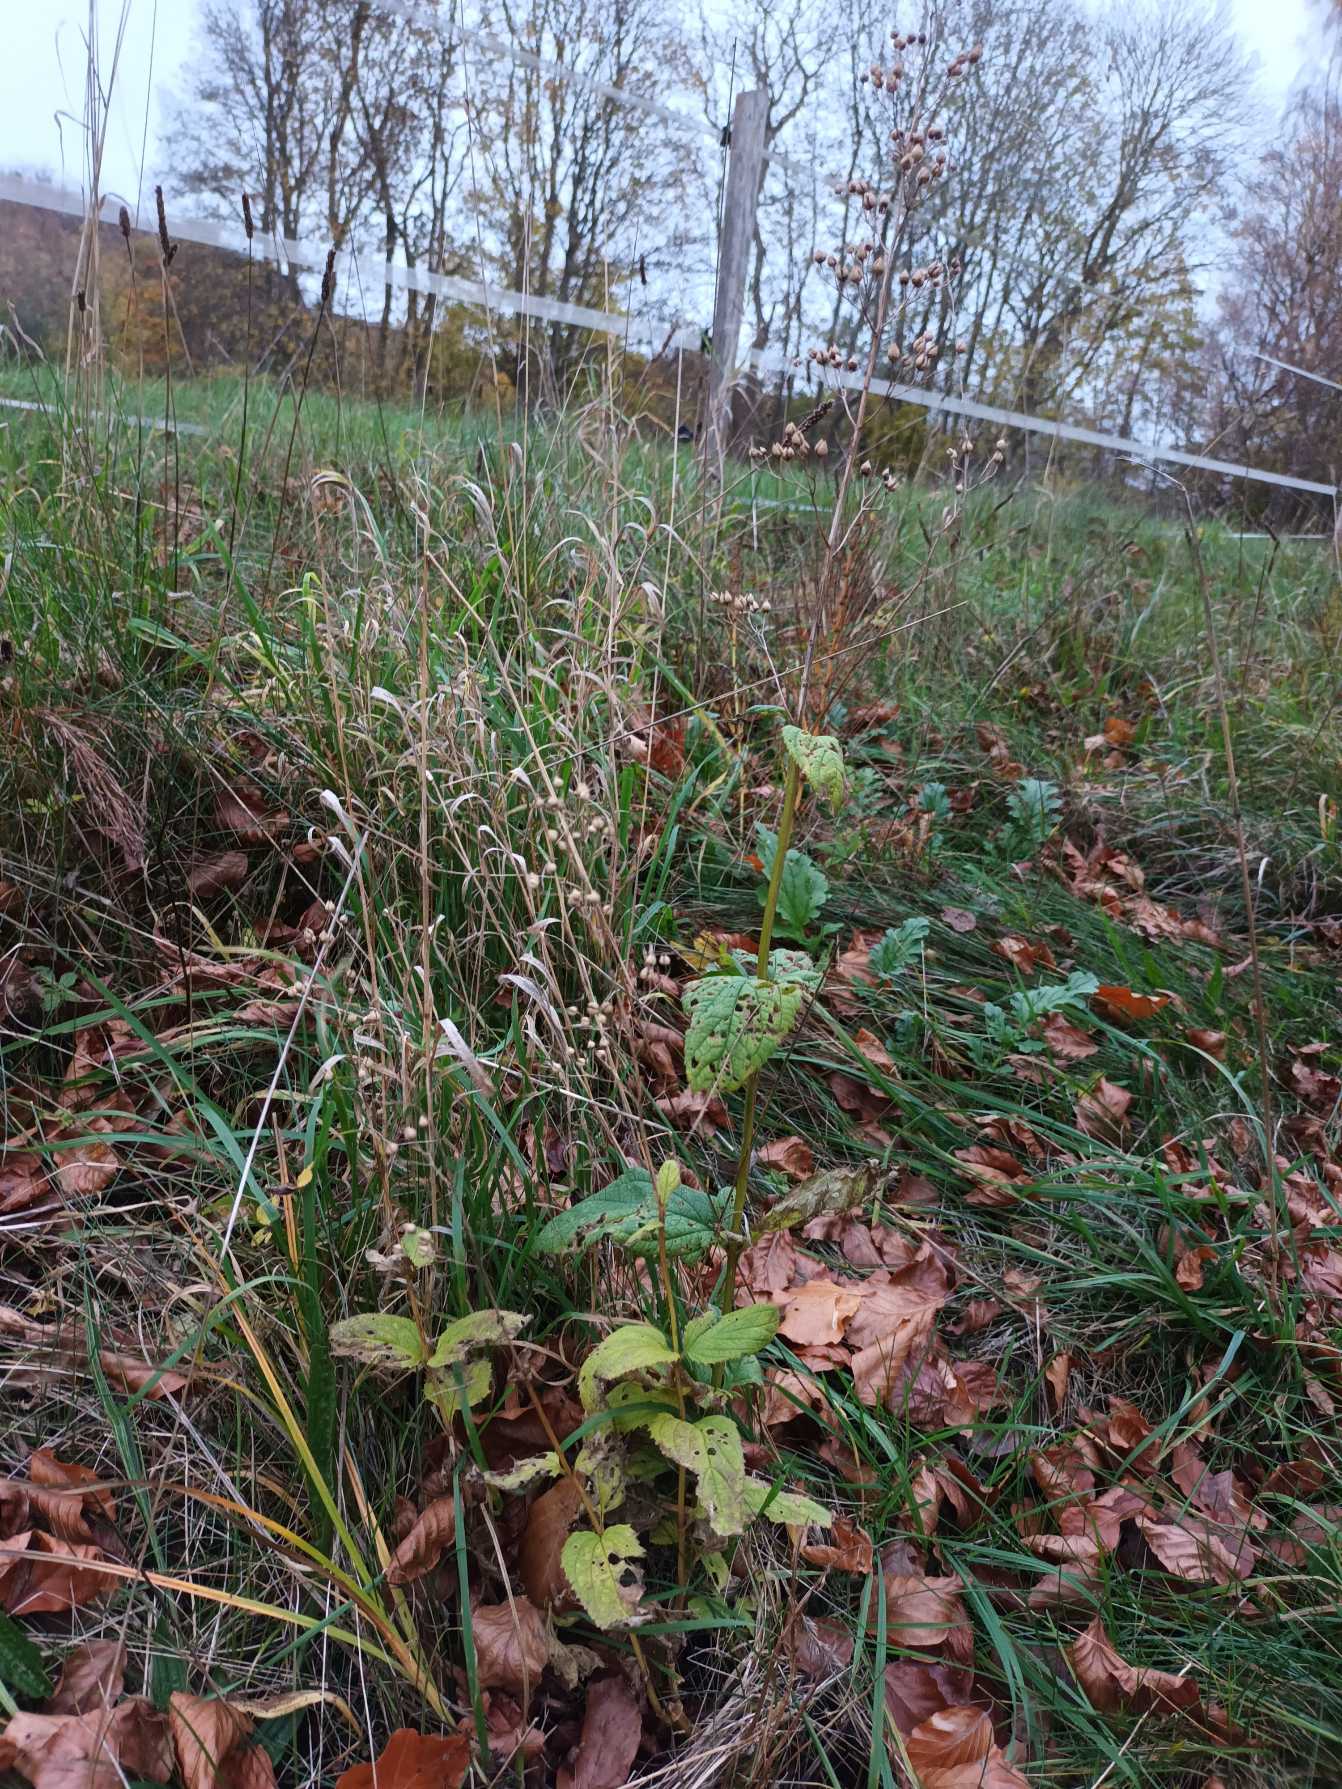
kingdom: Plantae
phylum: Tracheophyta
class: Magnoliopsida
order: Lamiales
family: Scrophulariaceae
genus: Scrophularia
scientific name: Scrophularia nodosa
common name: Knoldet brunrod
